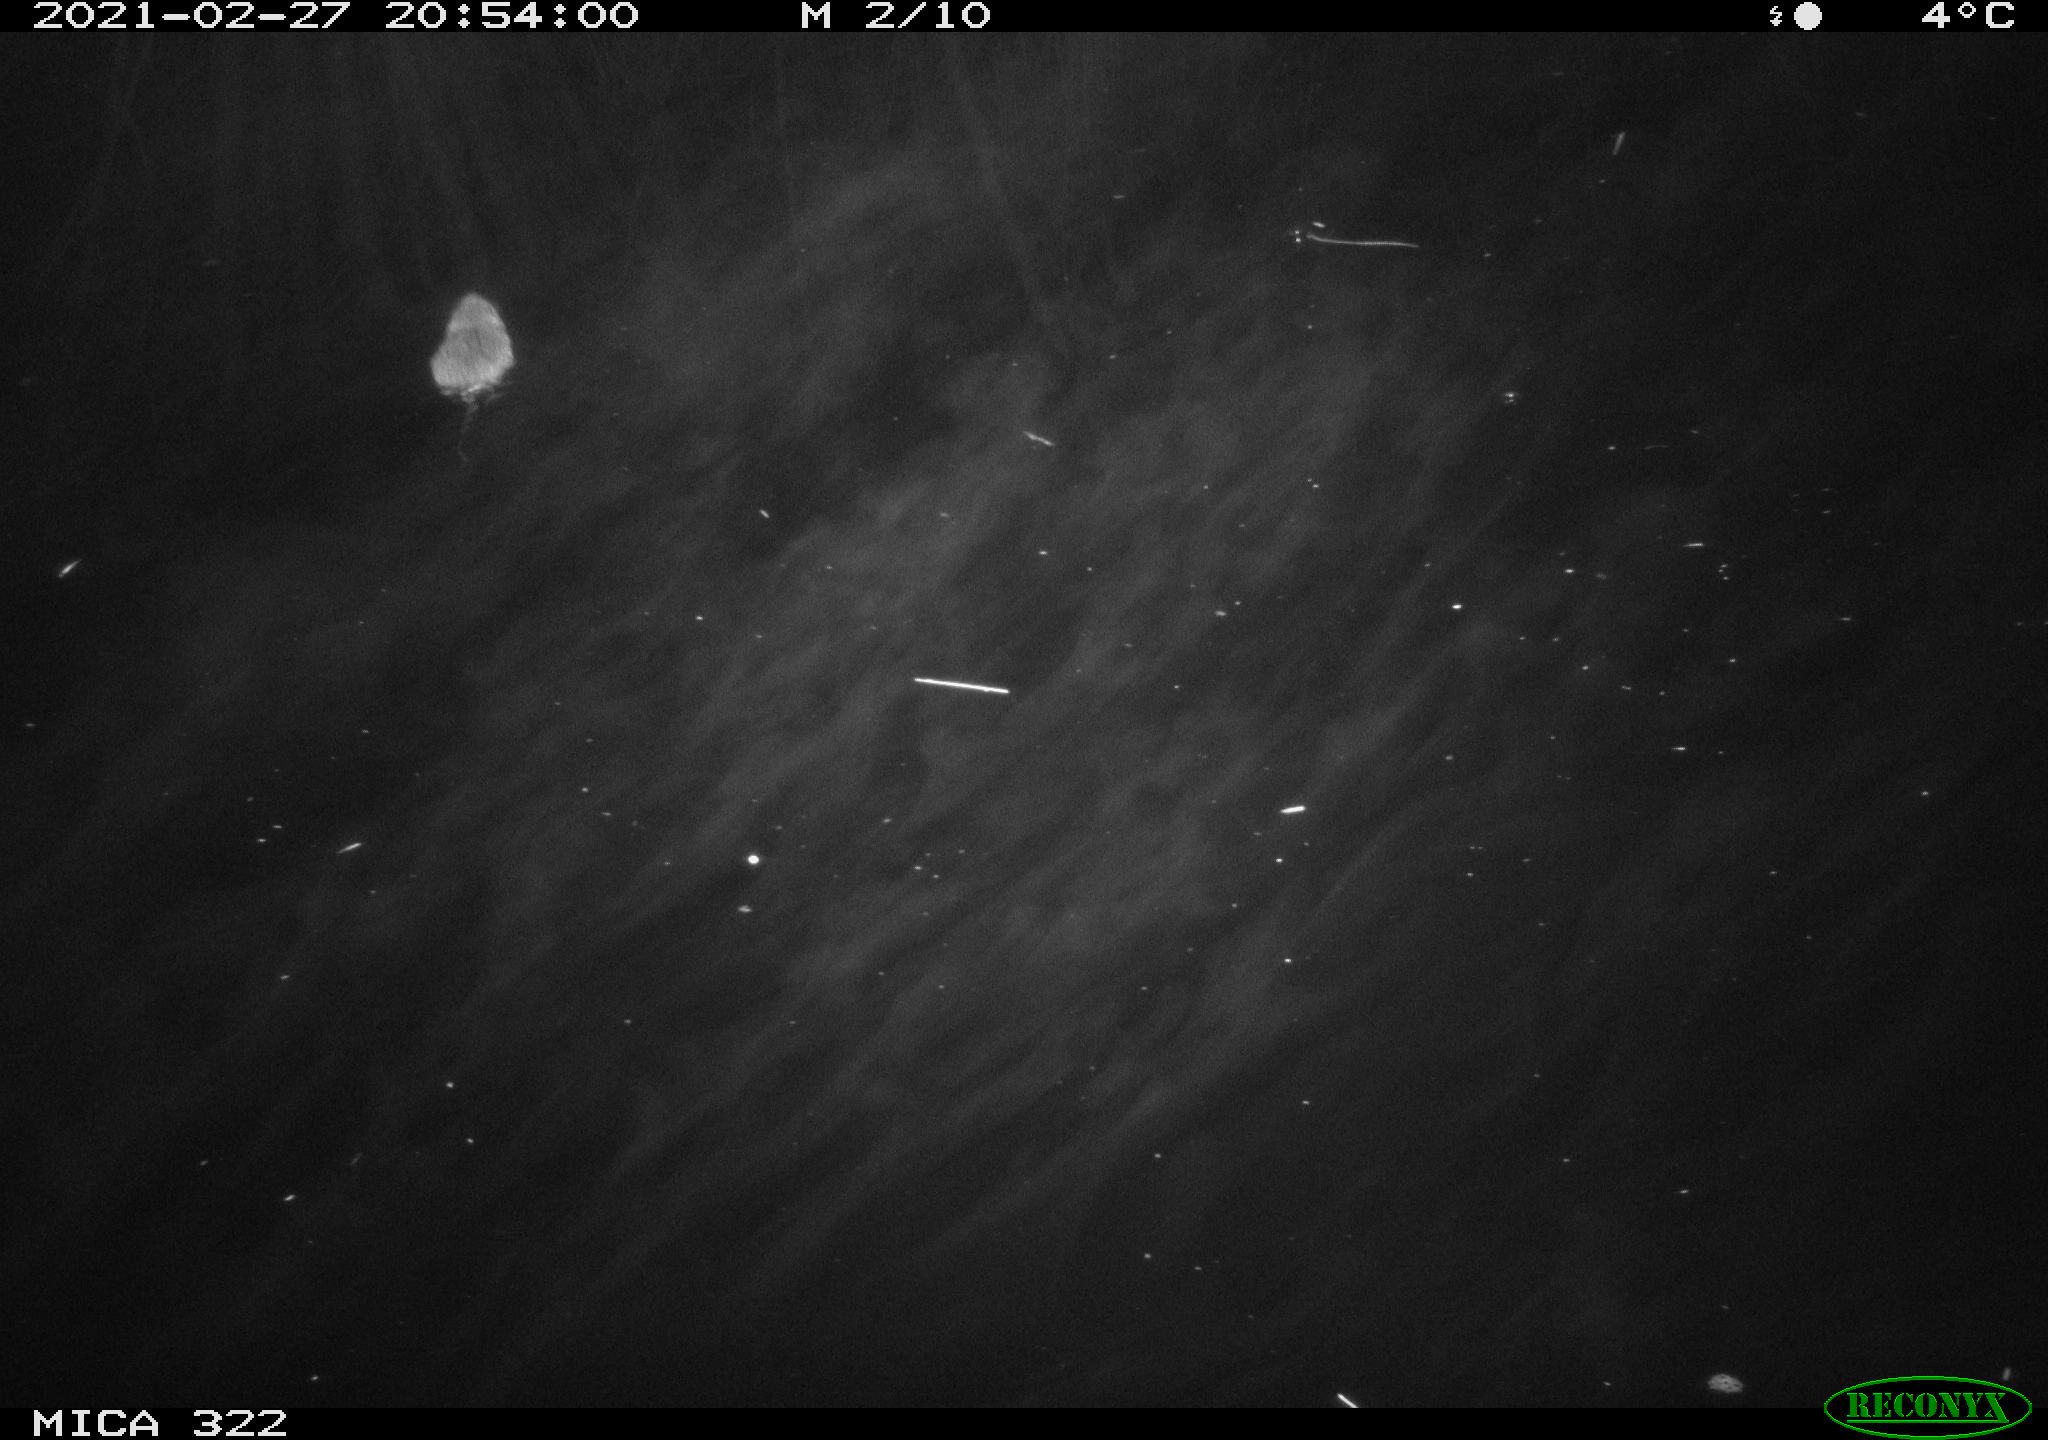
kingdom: Animalia
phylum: Chordata
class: Mammalia
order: Rodentia
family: Muridae
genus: Rattus
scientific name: Rattus norvegicus
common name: Brown rat
